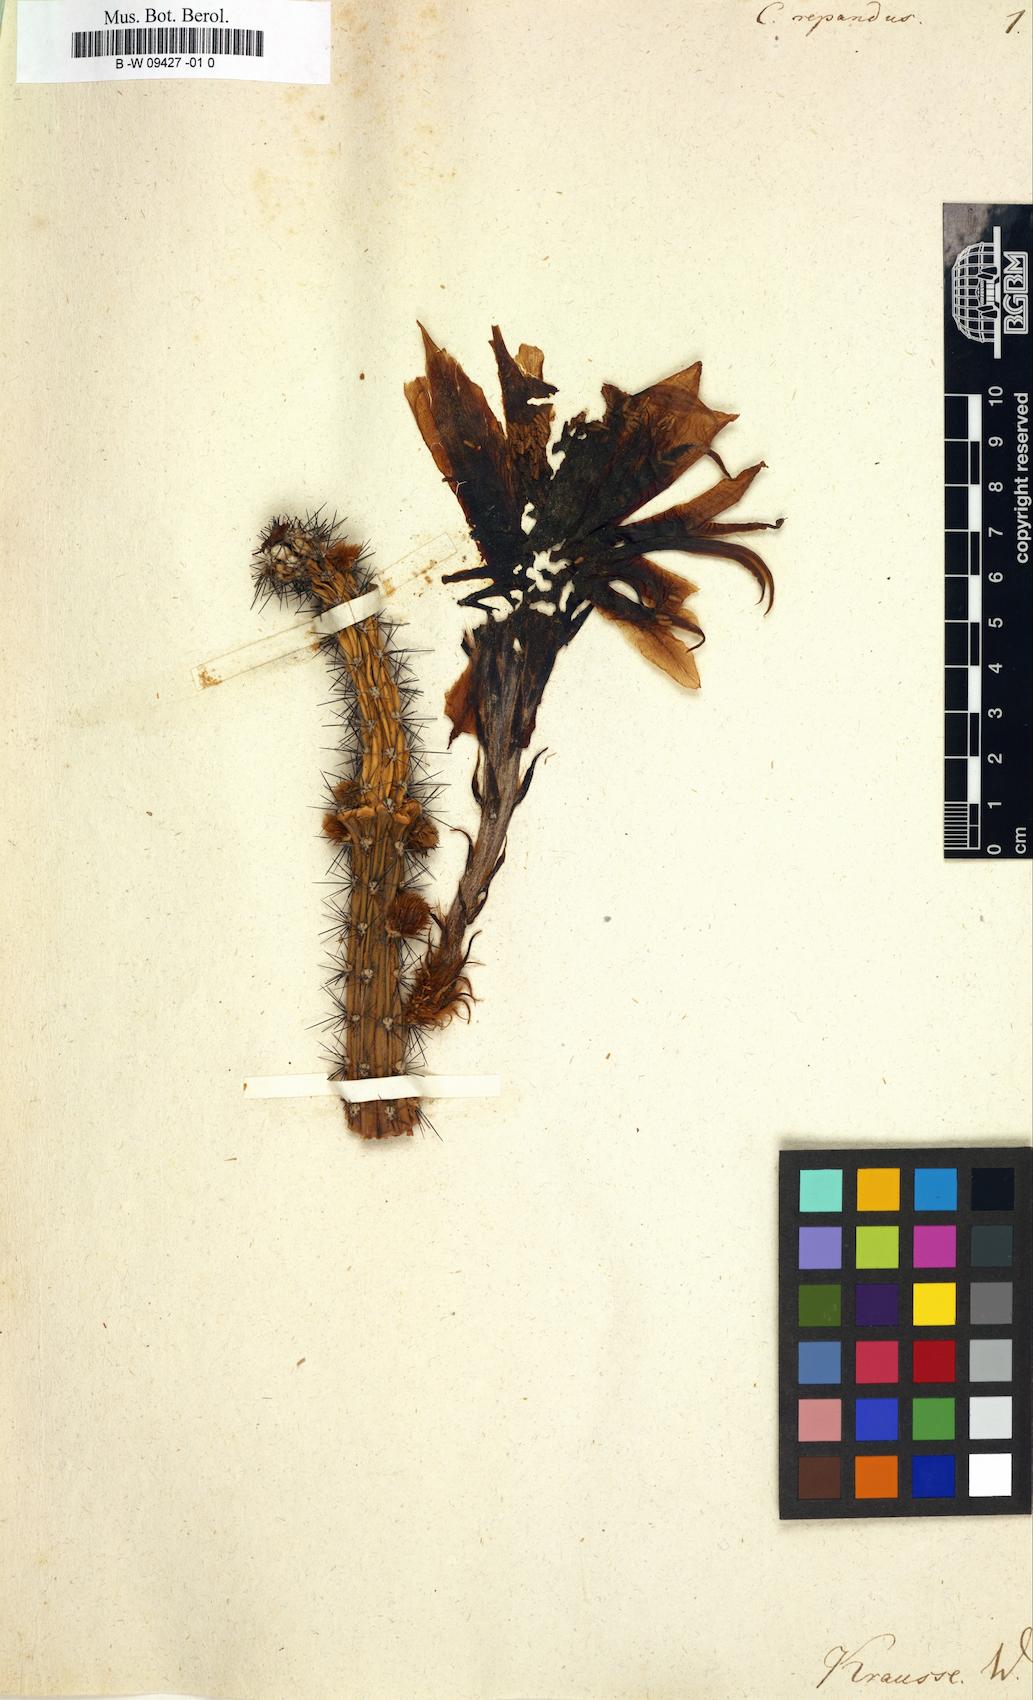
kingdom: Plantae
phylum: Tracheophyta
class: Magnoliopsida
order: Caryophyllales
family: Cactaceae
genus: Cereus
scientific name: Cereus repandus
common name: Sweetpotato cactus
